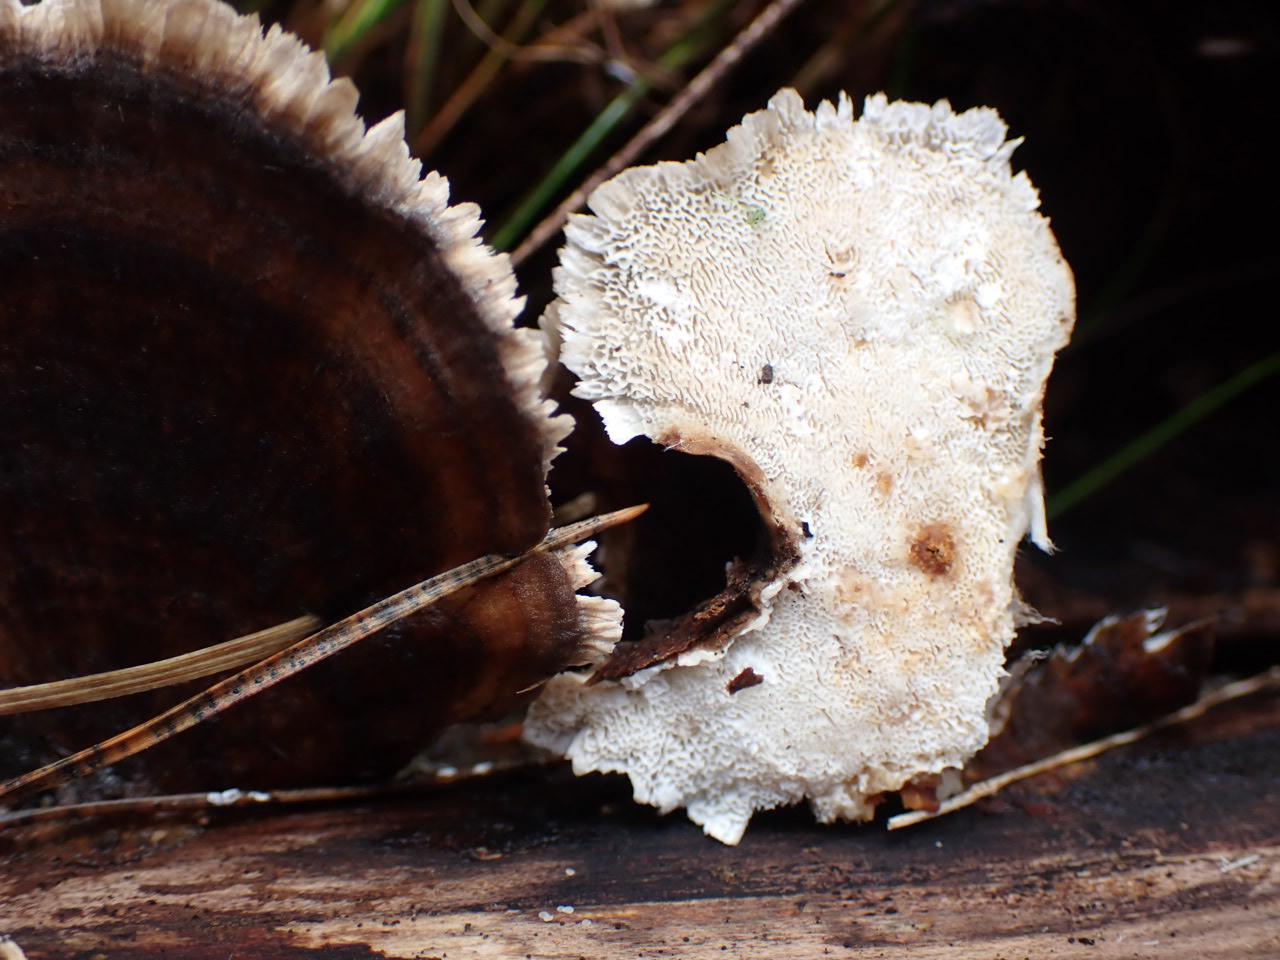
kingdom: Fungi
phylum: Basidiomycota
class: Agaricomycetes
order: Polyporales
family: Polyporaceae
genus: Trametes
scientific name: Trametes versicolor
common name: broget læderporesvamp
